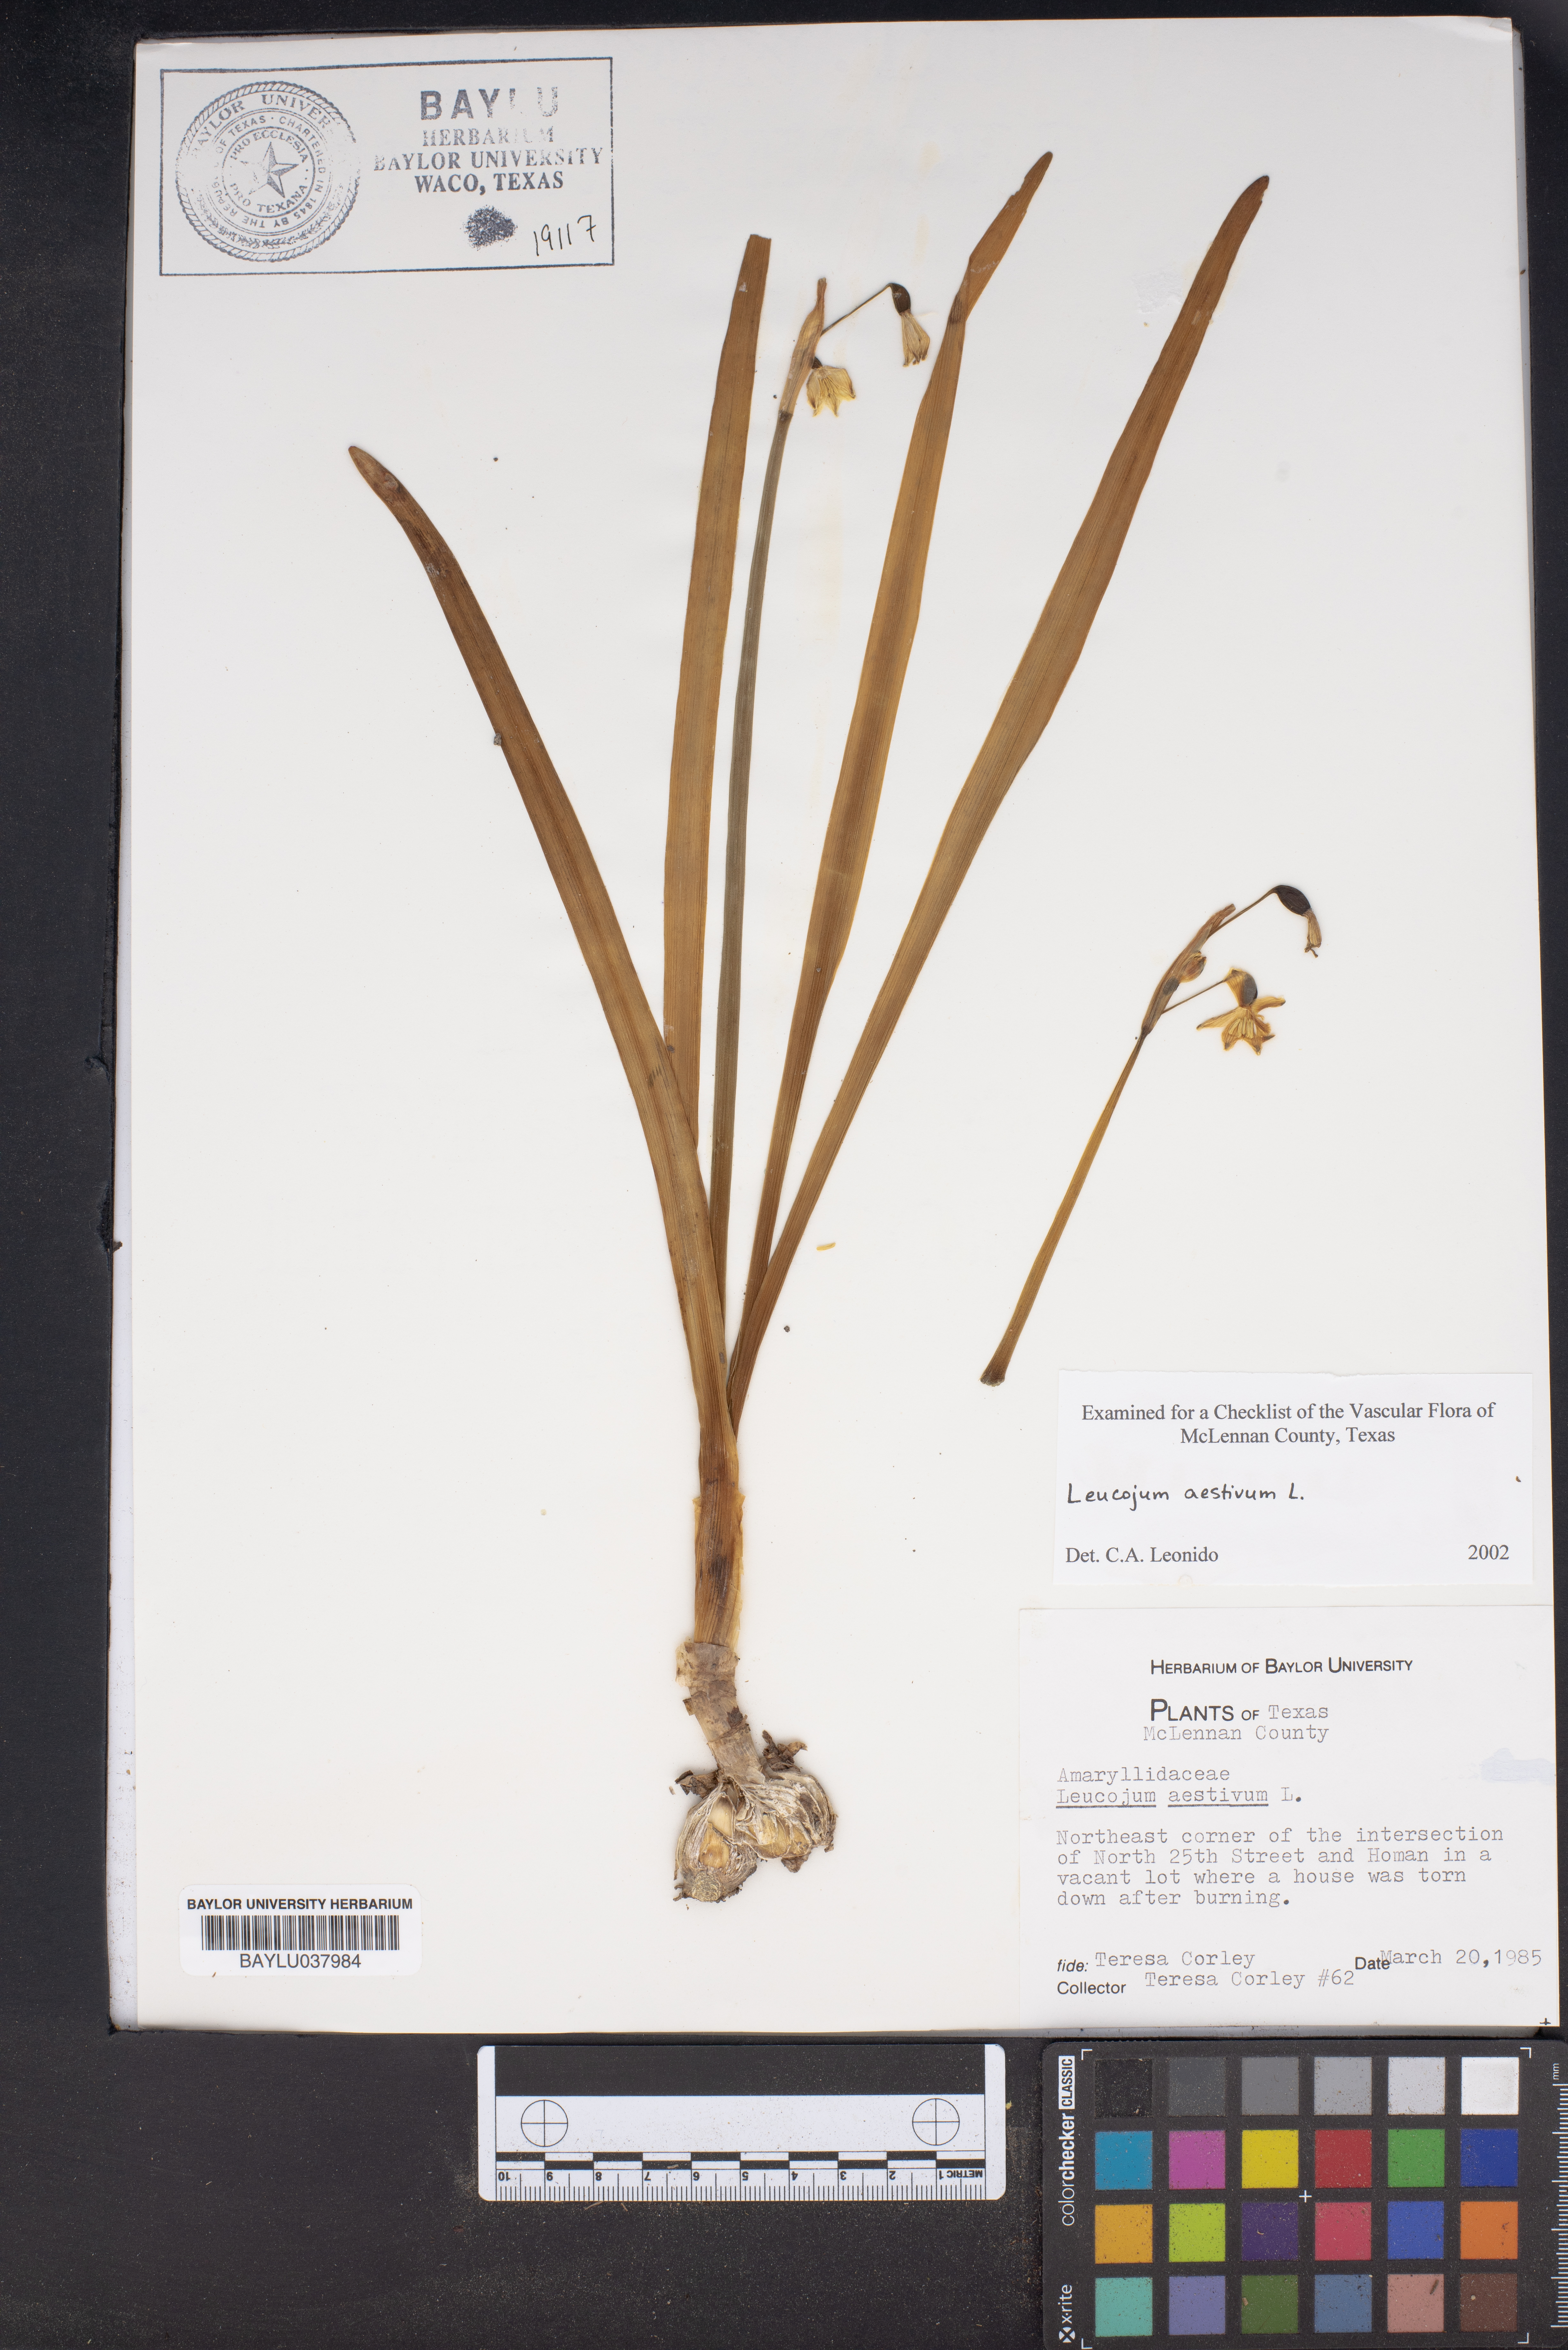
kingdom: Plantae
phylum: Tracheophyta
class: Liliopsida
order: Asparagales
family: Amaryllidaceae
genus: Leucojum
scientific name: Leucojum aestivum
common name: Summer snowflake
